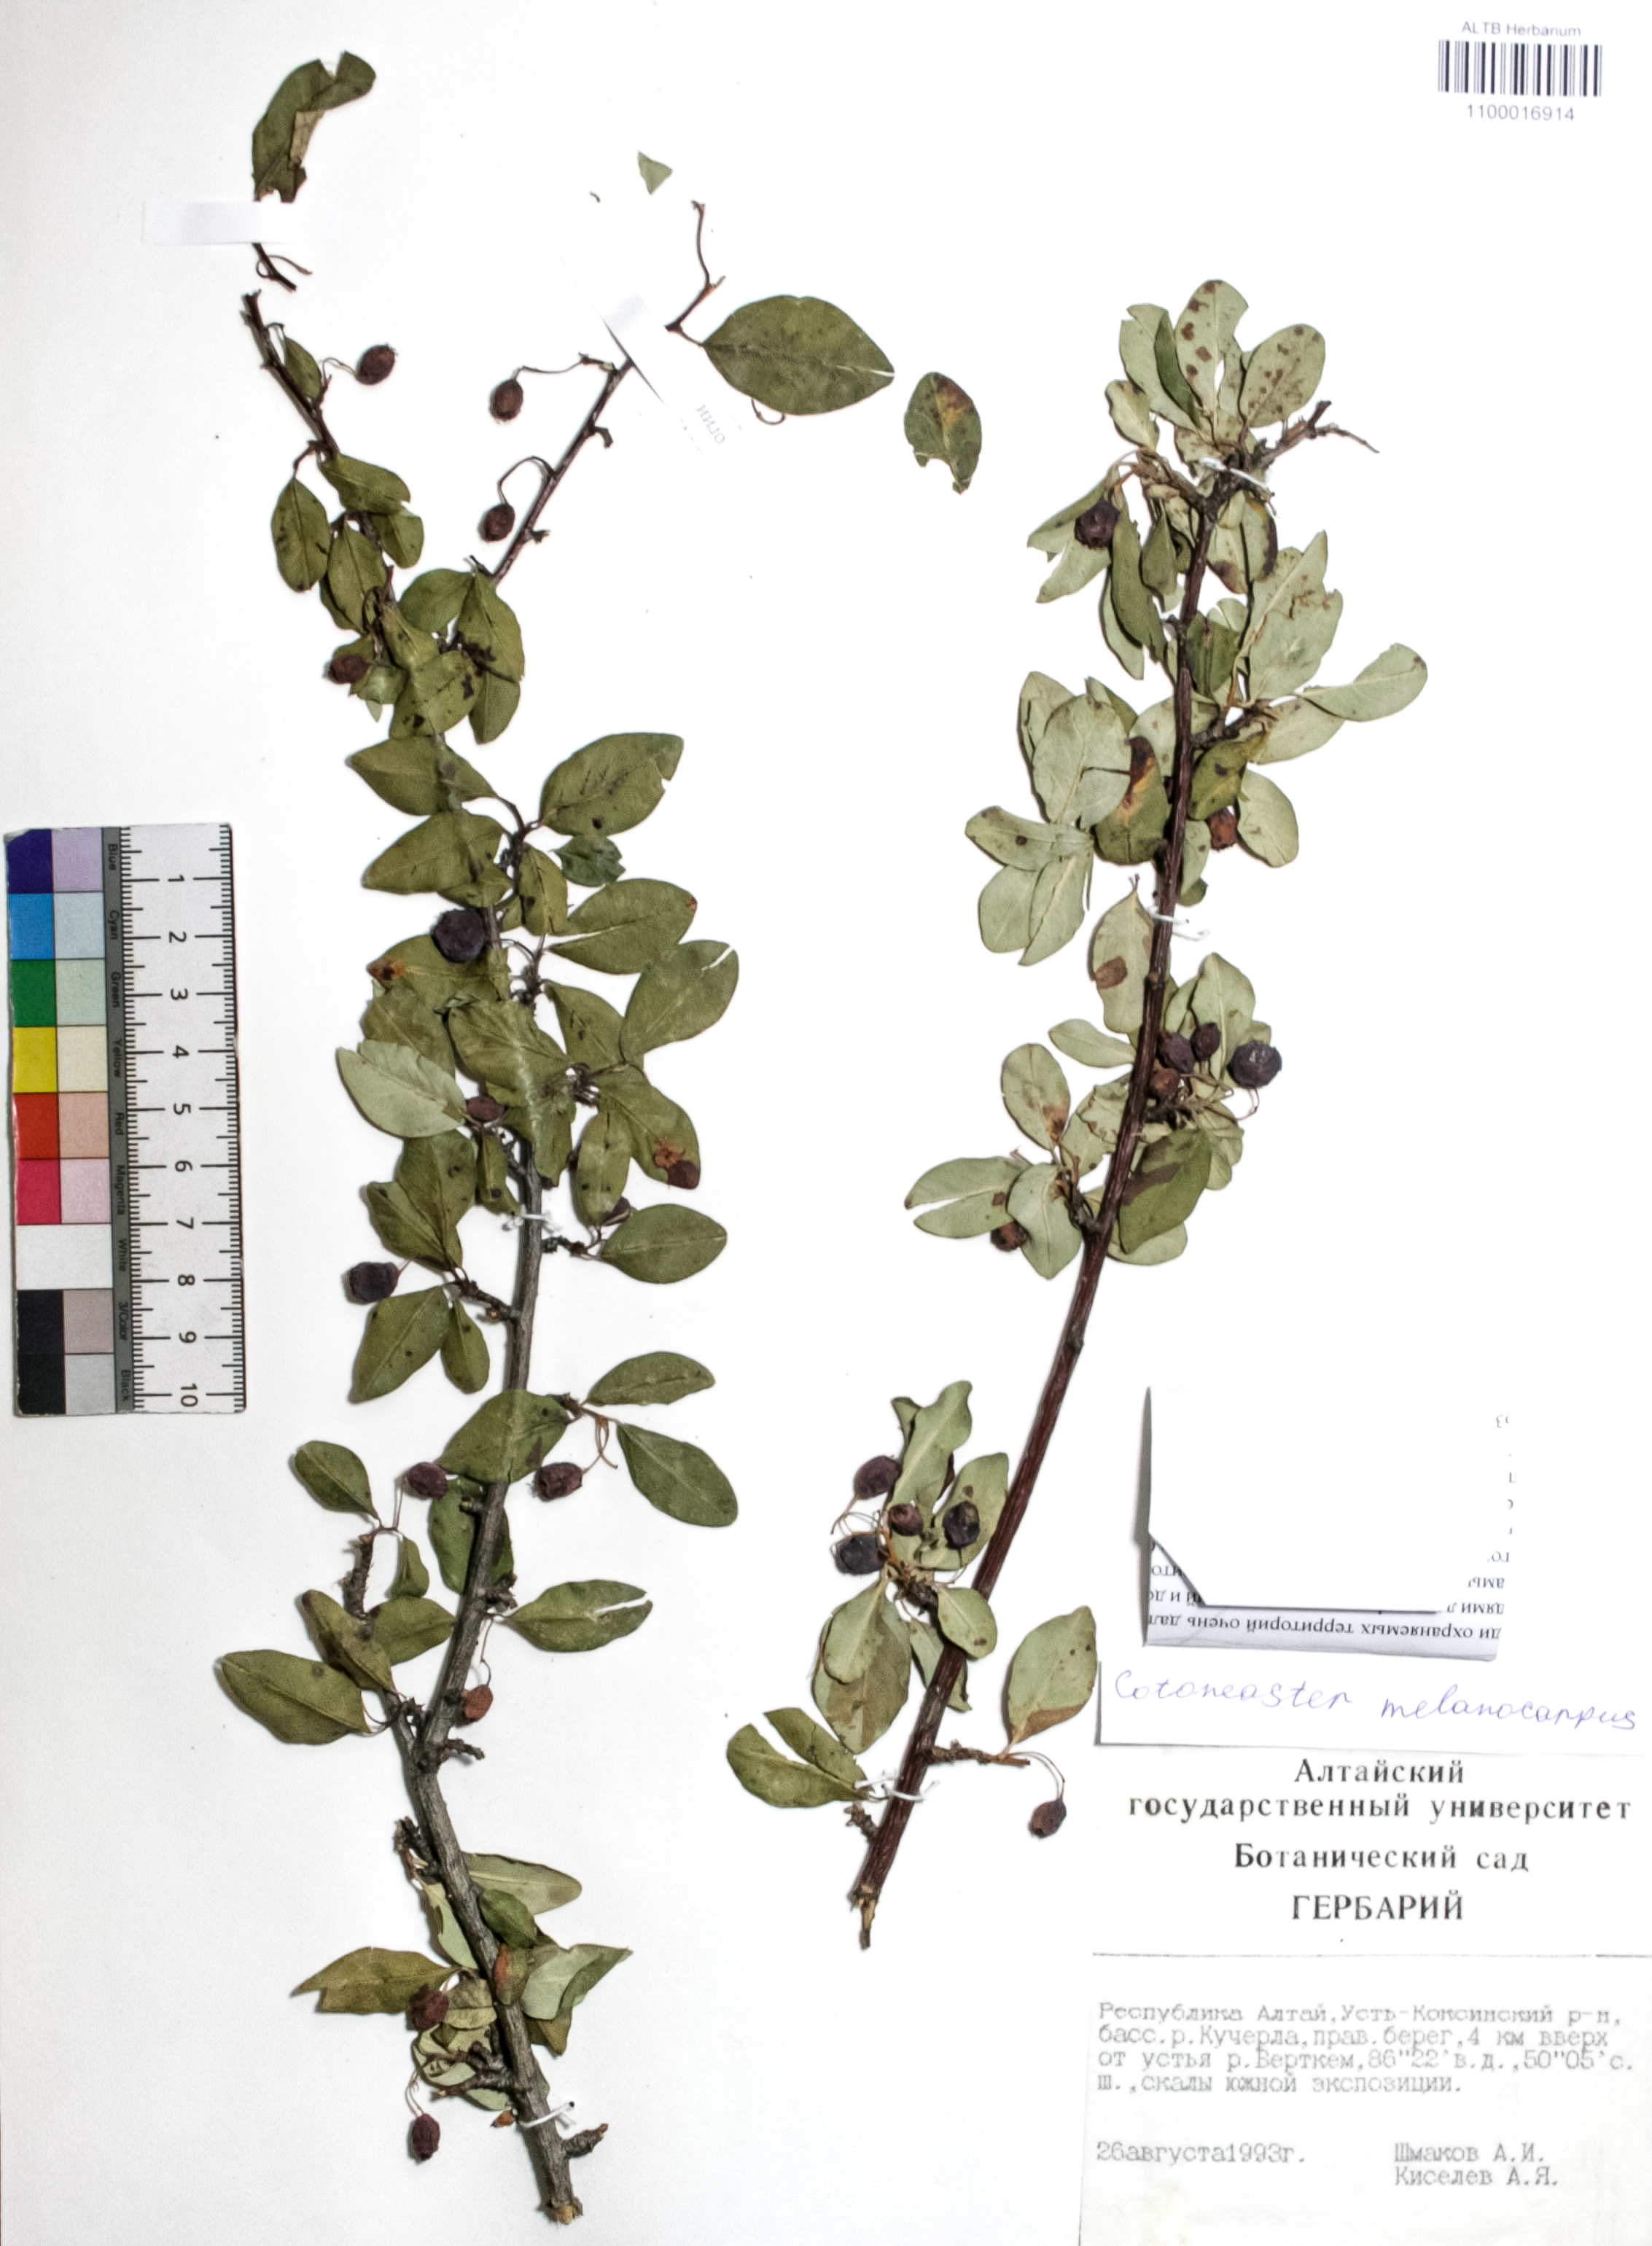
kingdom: Plantae
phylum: Tracheophyta
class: Magnoliopsida
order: Rosales
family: Rosaceae
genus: Cotoneaster
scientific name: Cotoneaster niger
